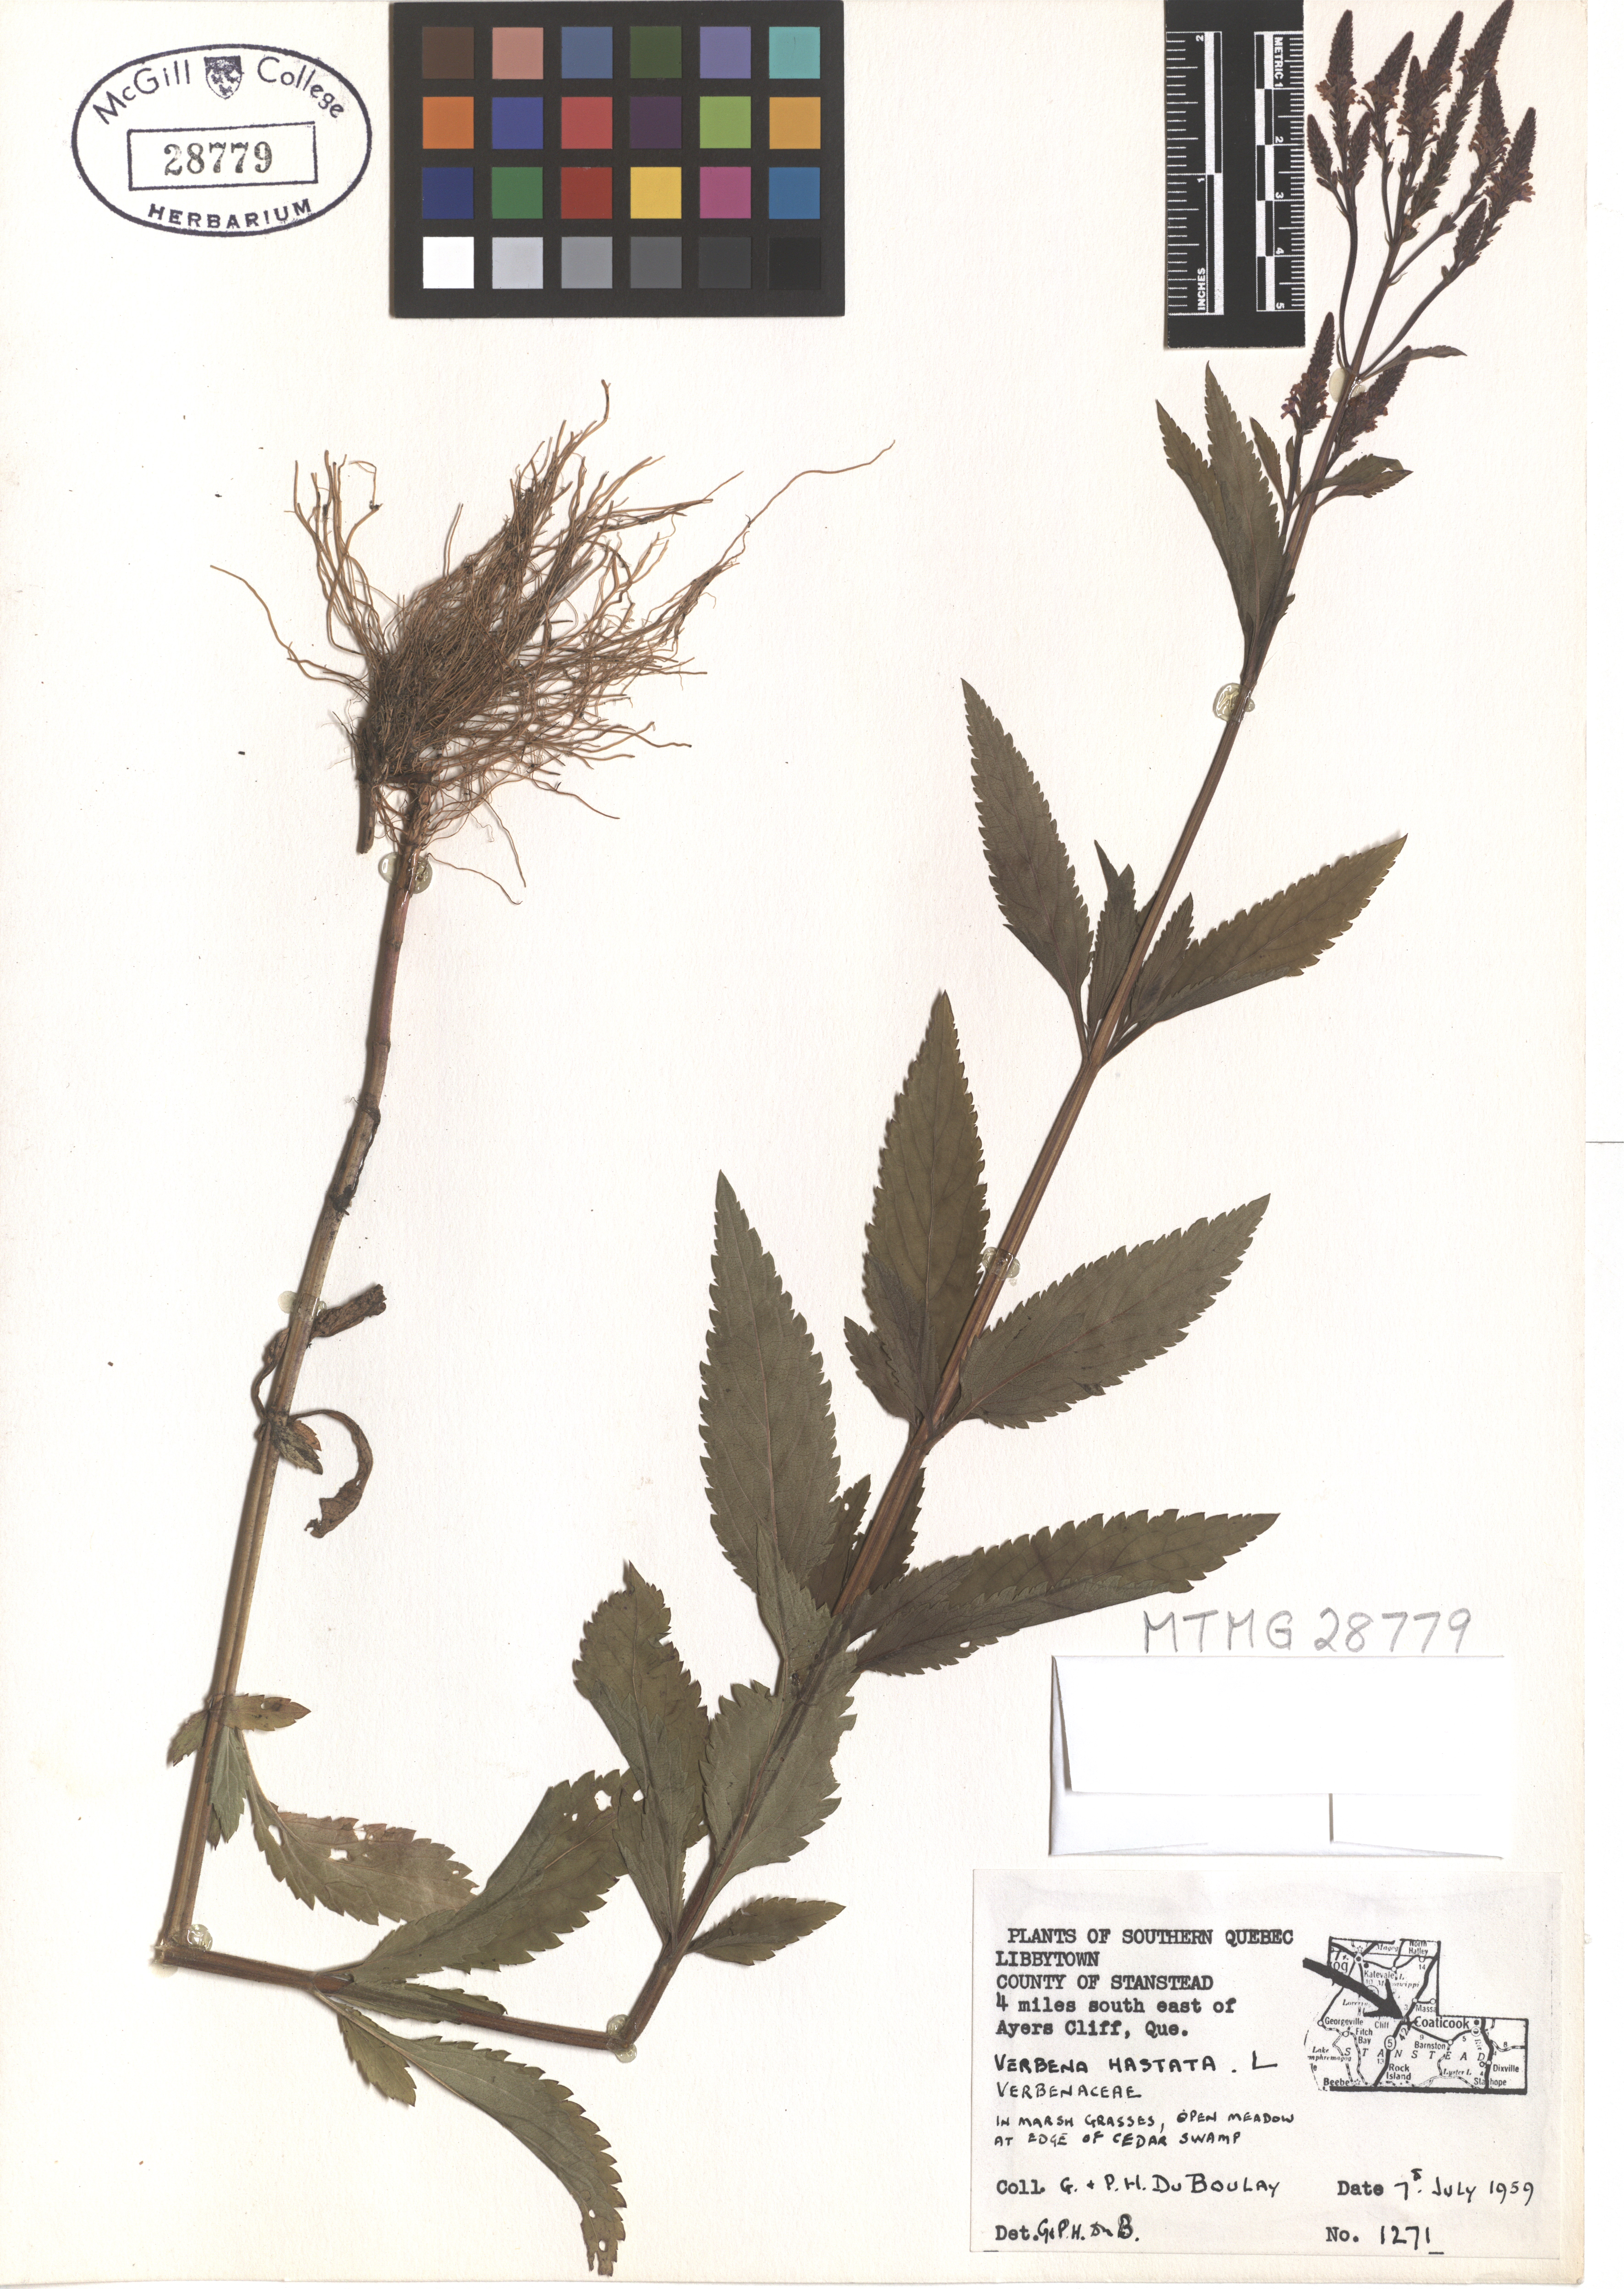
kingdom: Plantae
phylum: Tracheophyta
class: Magnoliopsida
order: Lamiales
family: Verbenaceae
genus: Verbena
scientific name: Verbena hastata
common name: American blue vervain
